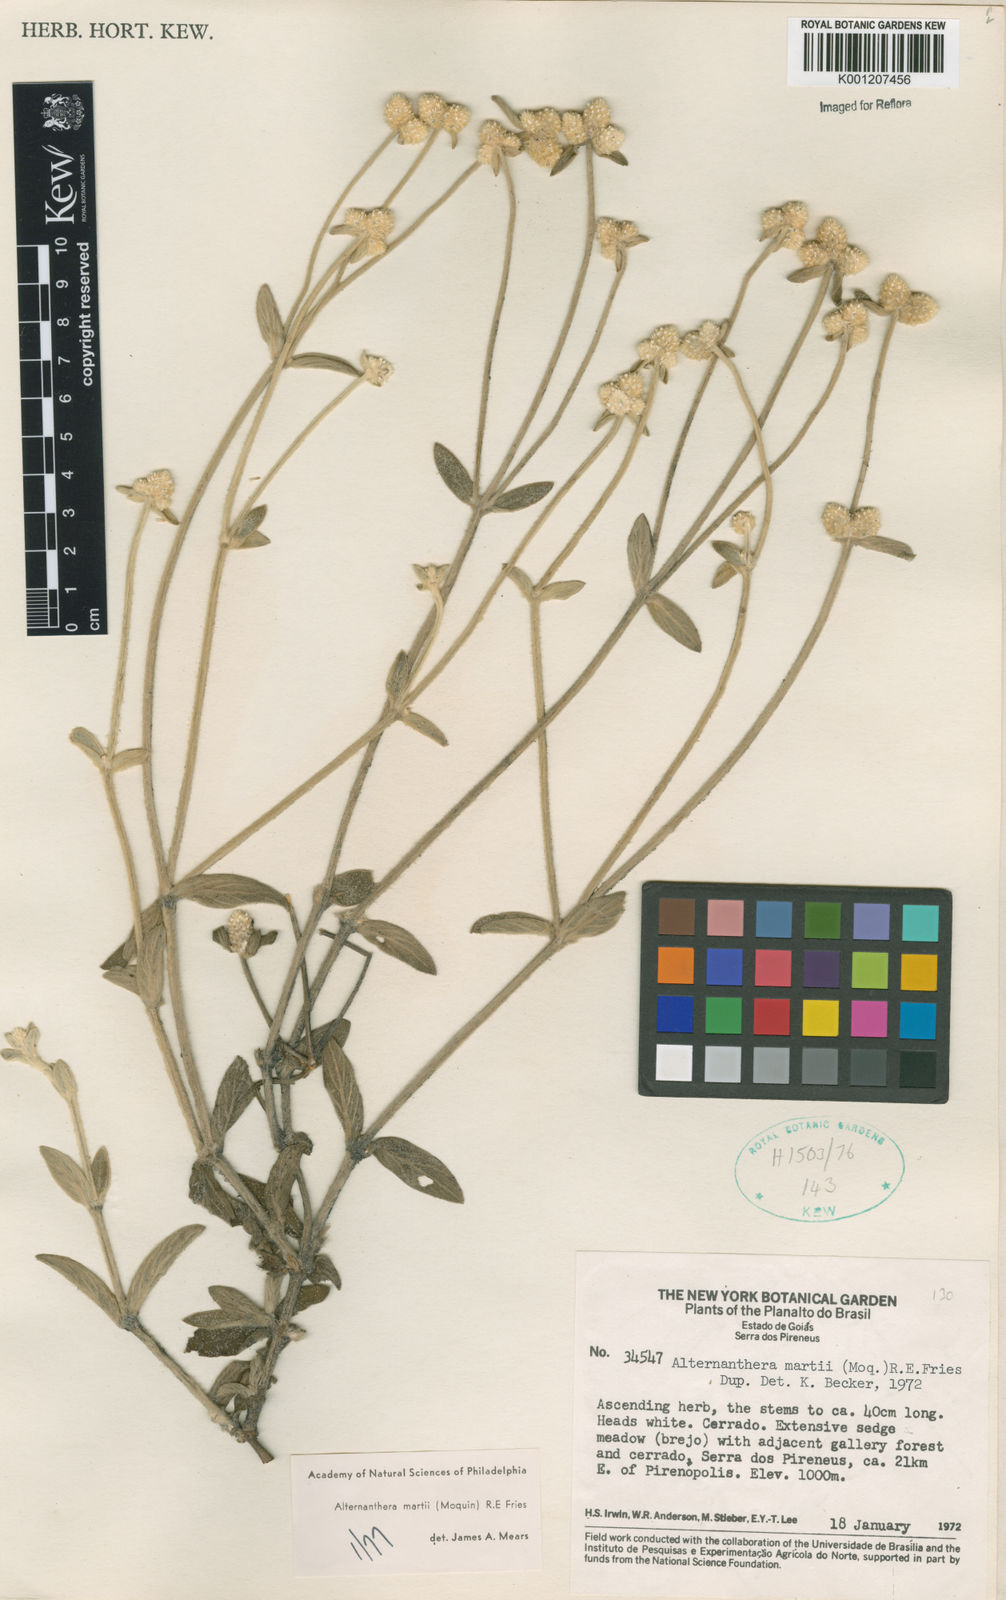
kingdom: Plantae
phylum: Tracheophyta
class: Magnoliopsida
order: Caryophyllales
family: Amaranthaceae
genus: Alternanthera
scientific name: Alternanthera martii
